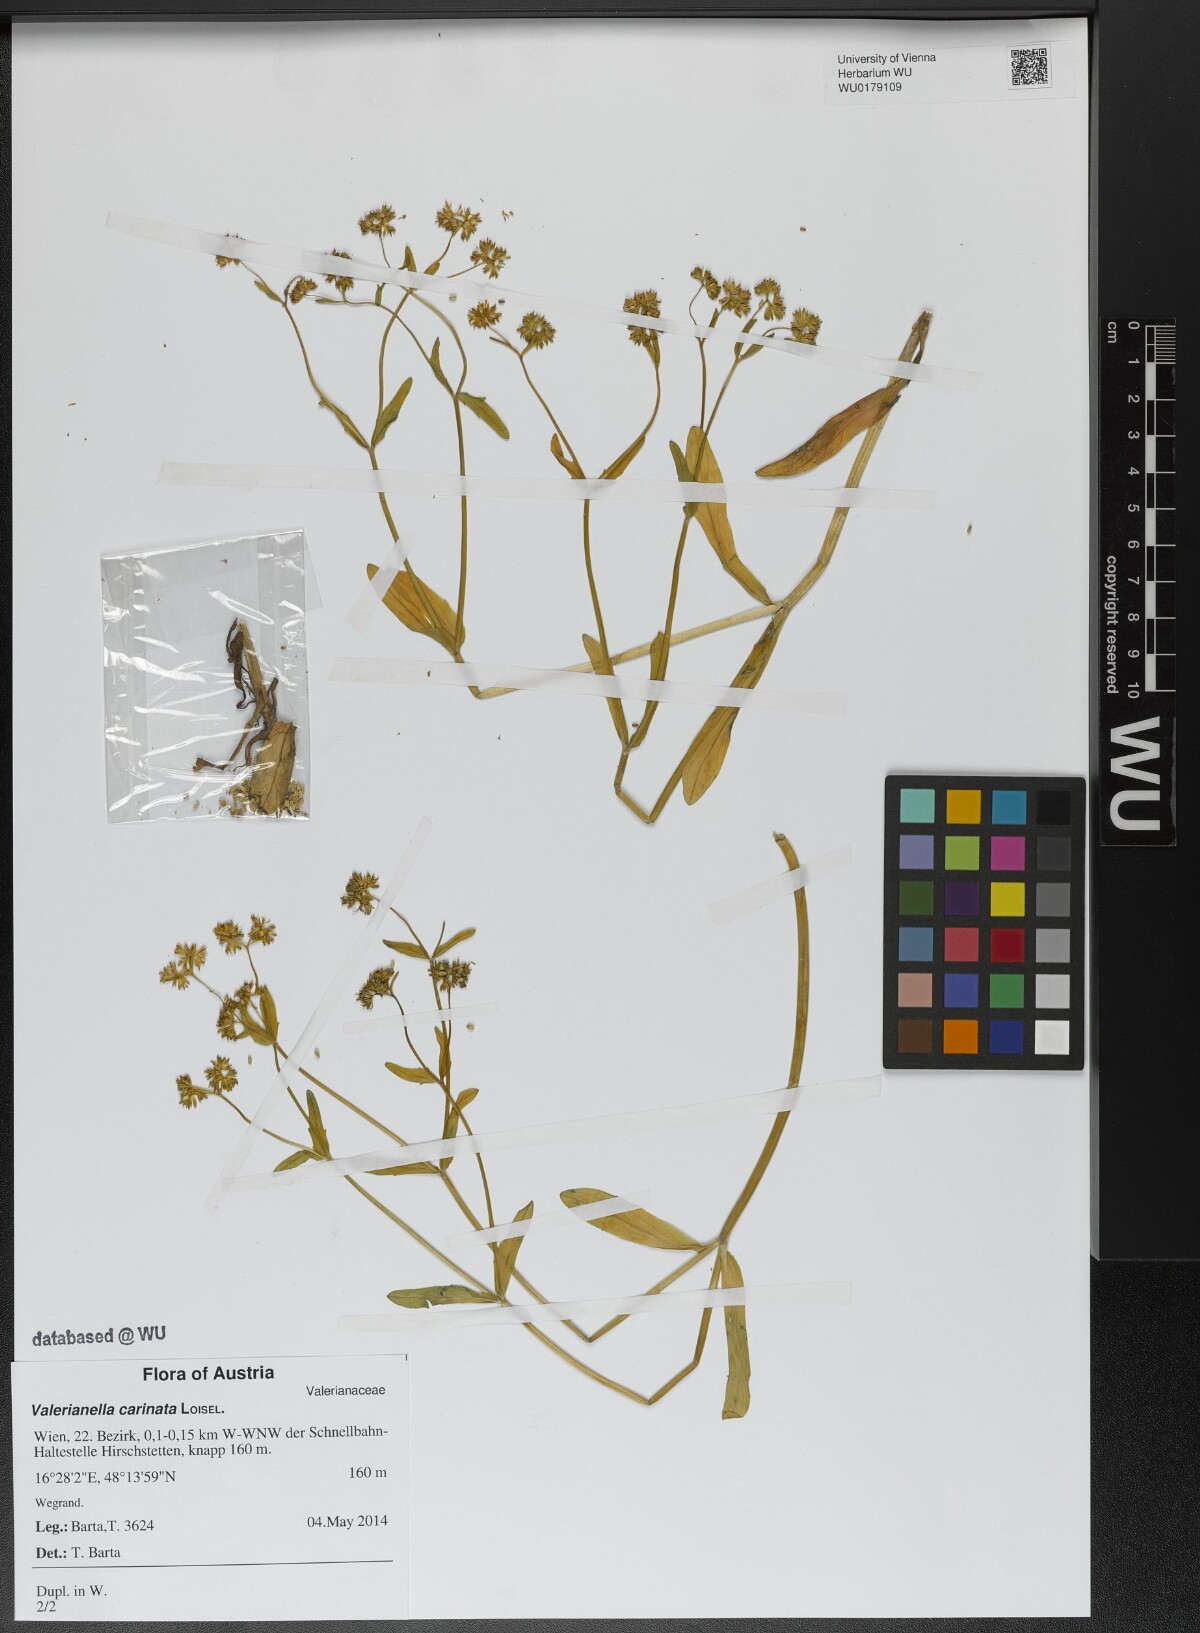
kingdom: Plantae
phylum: Tracheophyta
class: Magnoliopsida
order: Dipsacales
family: Caprifoliaceae
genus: Valerianella
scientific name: Valerianella carinata
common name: Keeled-fruited cornsalad
